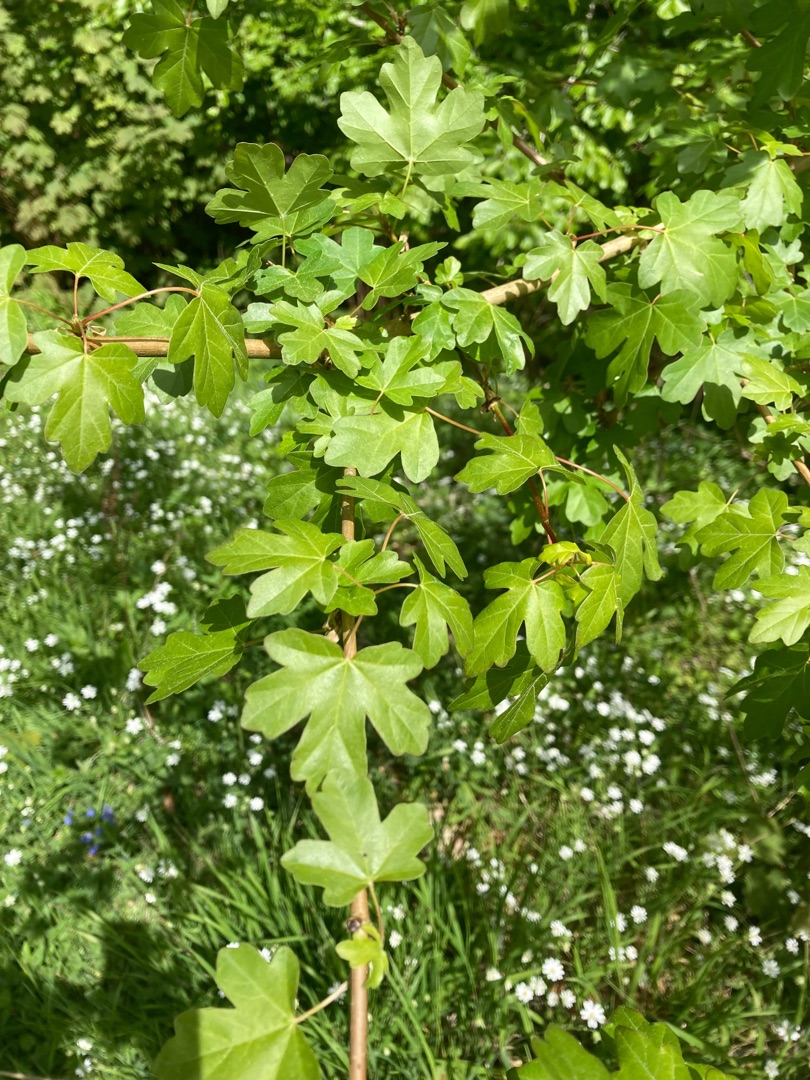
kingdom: Plantae
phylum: Tracheophyta
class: Magnoliopsida
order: Sapindales
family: Sapindaceae
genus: Acer
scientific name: Acer campestre
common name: Navr
